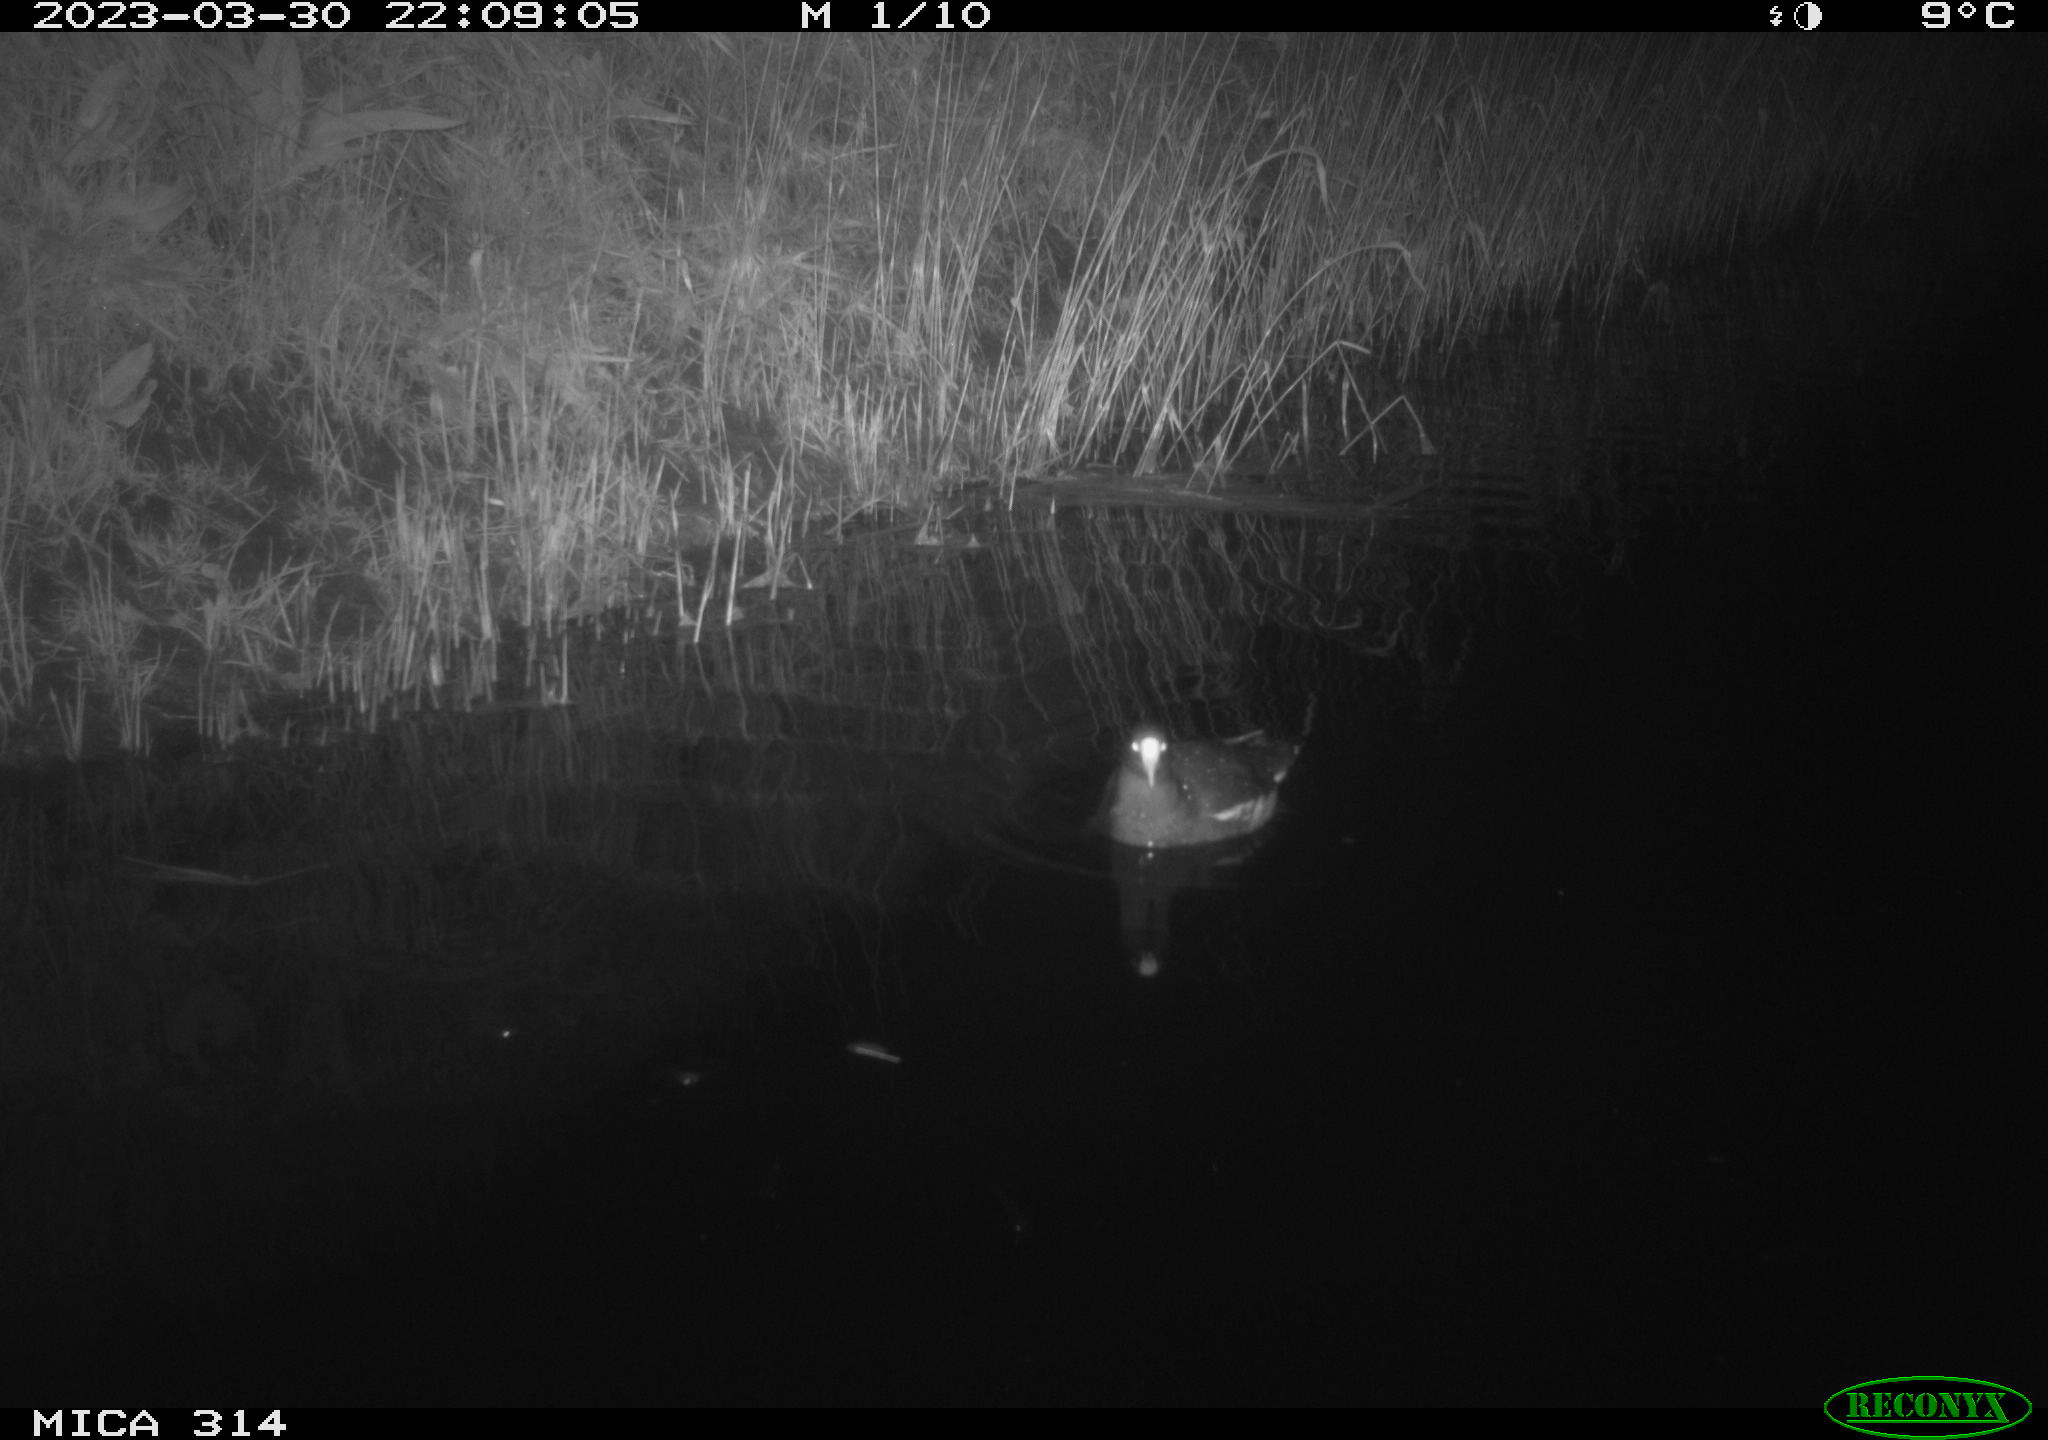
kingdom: Animalia
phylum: Chordata
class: Aves
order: Gruiformes
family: Rallidae
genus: Gallinula
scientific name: Gallinula chloropus
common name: Common moorhen
